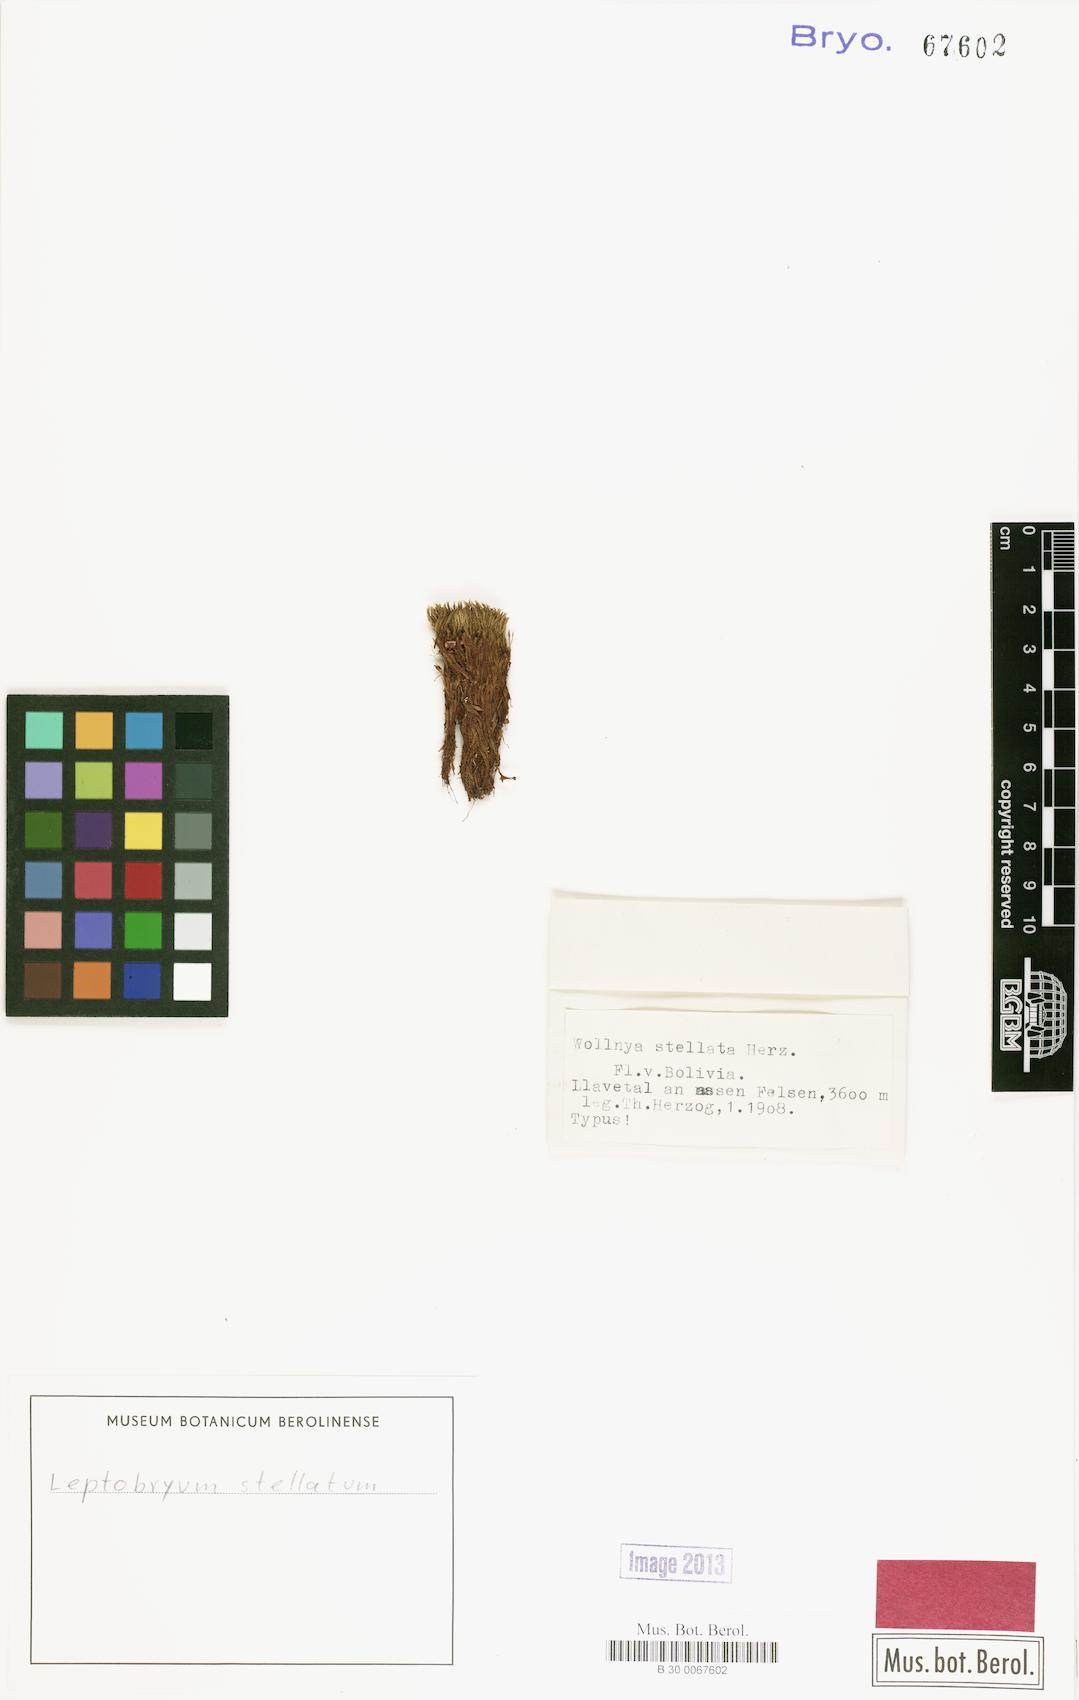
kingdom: Plantae
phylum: Bryophyta
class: Bryopsida
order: Bryales
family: Mniaceae
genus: Pohlia
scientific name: Pohlia wilsonii
